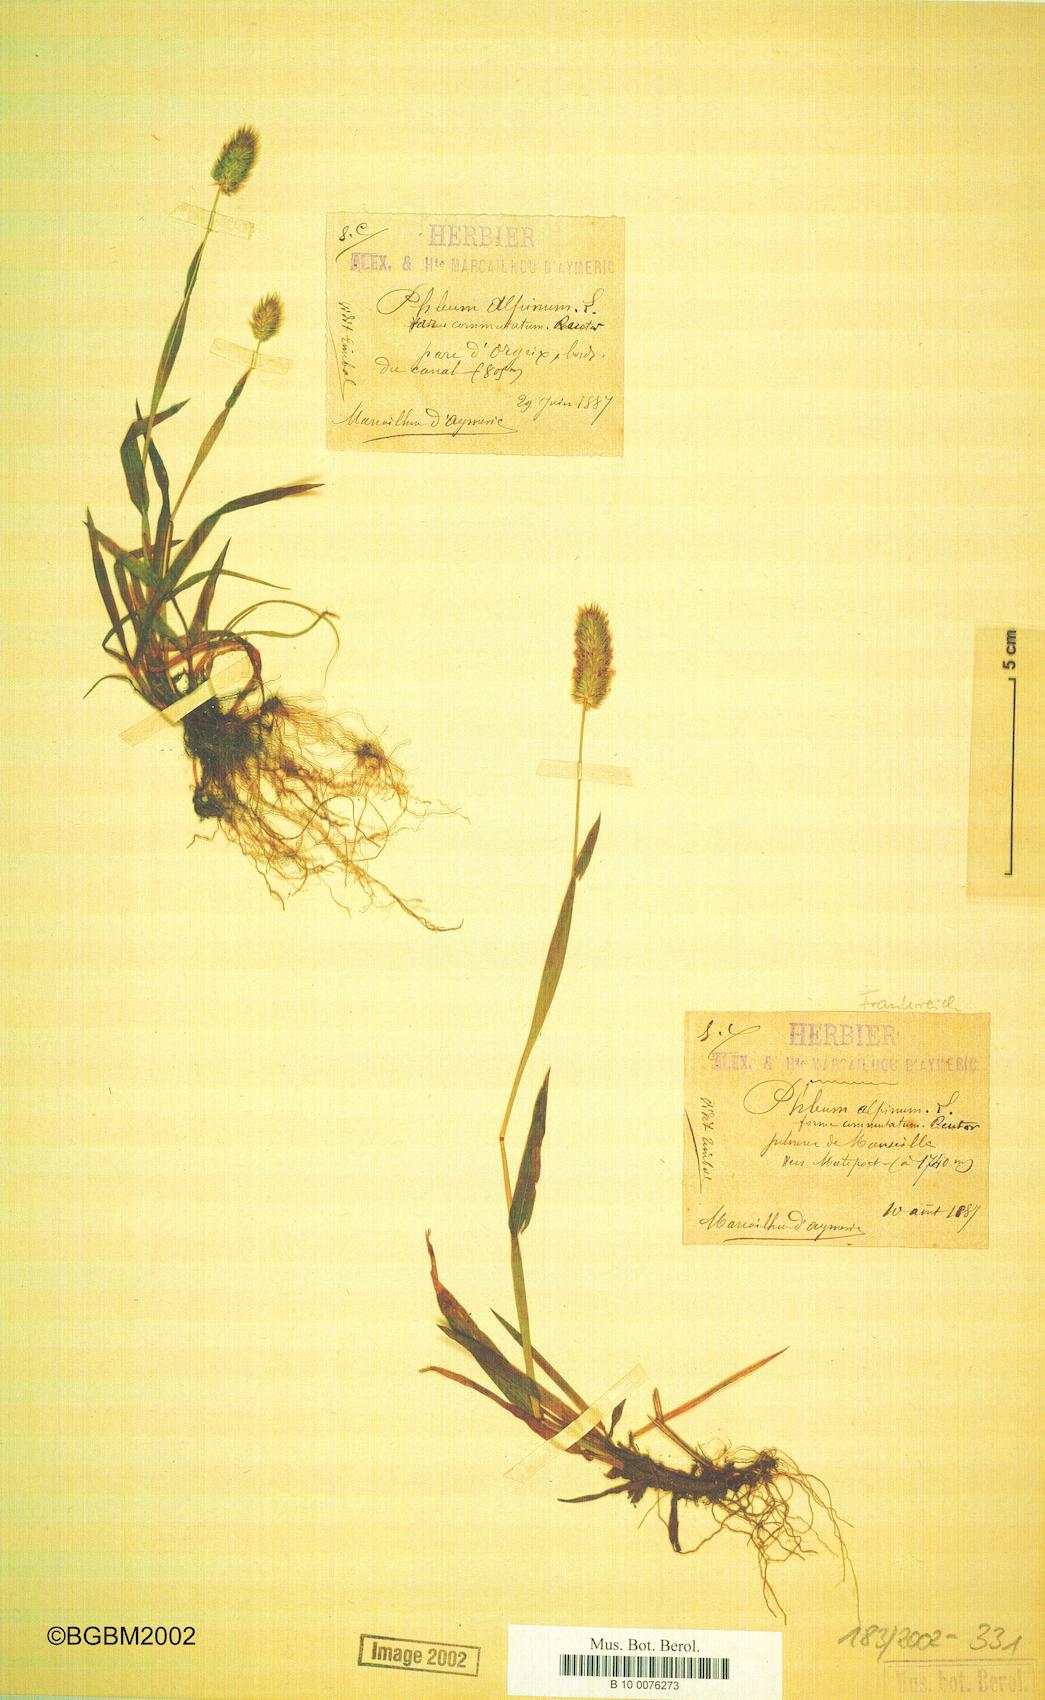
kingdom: Plantae
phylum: Tracheophyta
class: Liliopsida
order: Poales
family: Poaceae
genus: Phleum
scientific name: Phleum alpinum
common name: Alpine cat's-tail
